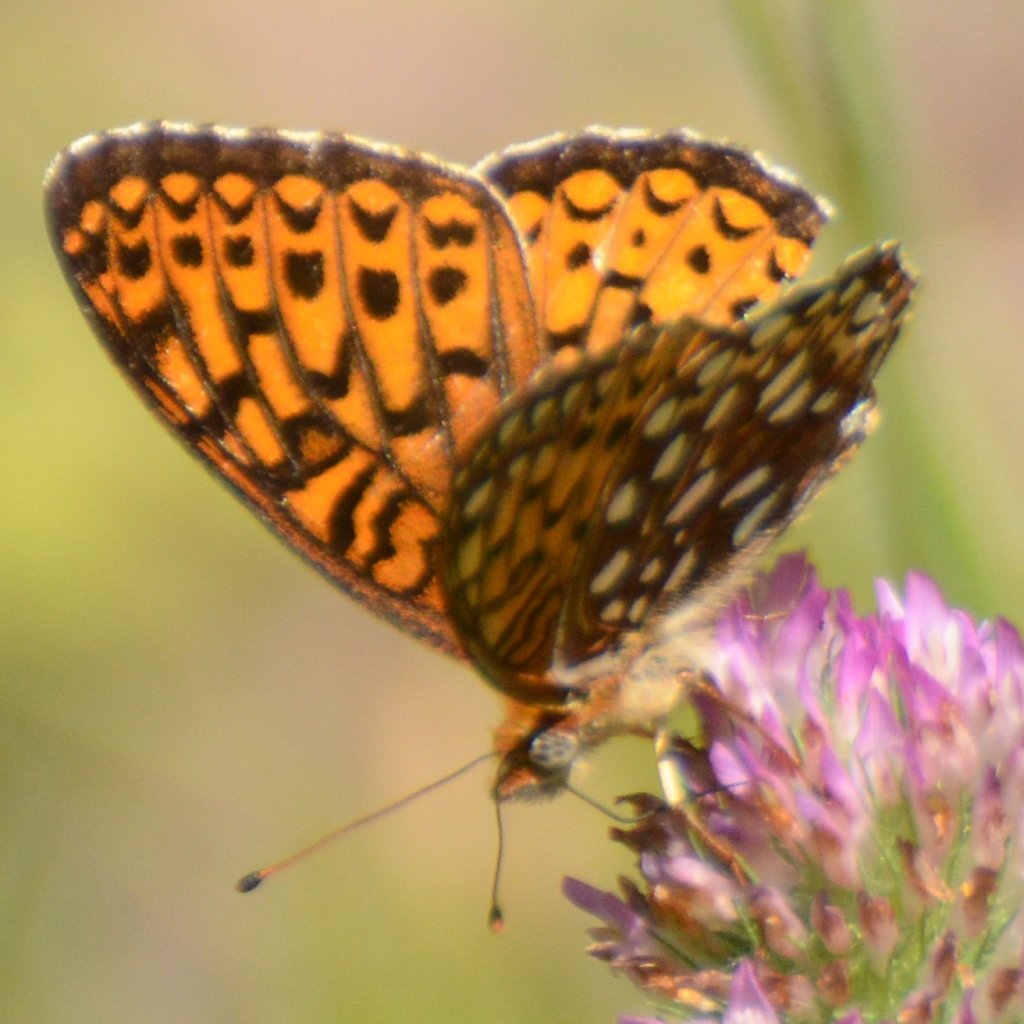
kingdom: Animalia
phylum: Arthropoda
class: Insecta
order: Lepidoptera
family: Nymphalidae
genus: Speyeria
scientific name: Speyeria atlantis
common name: Atlantis Fritillary
